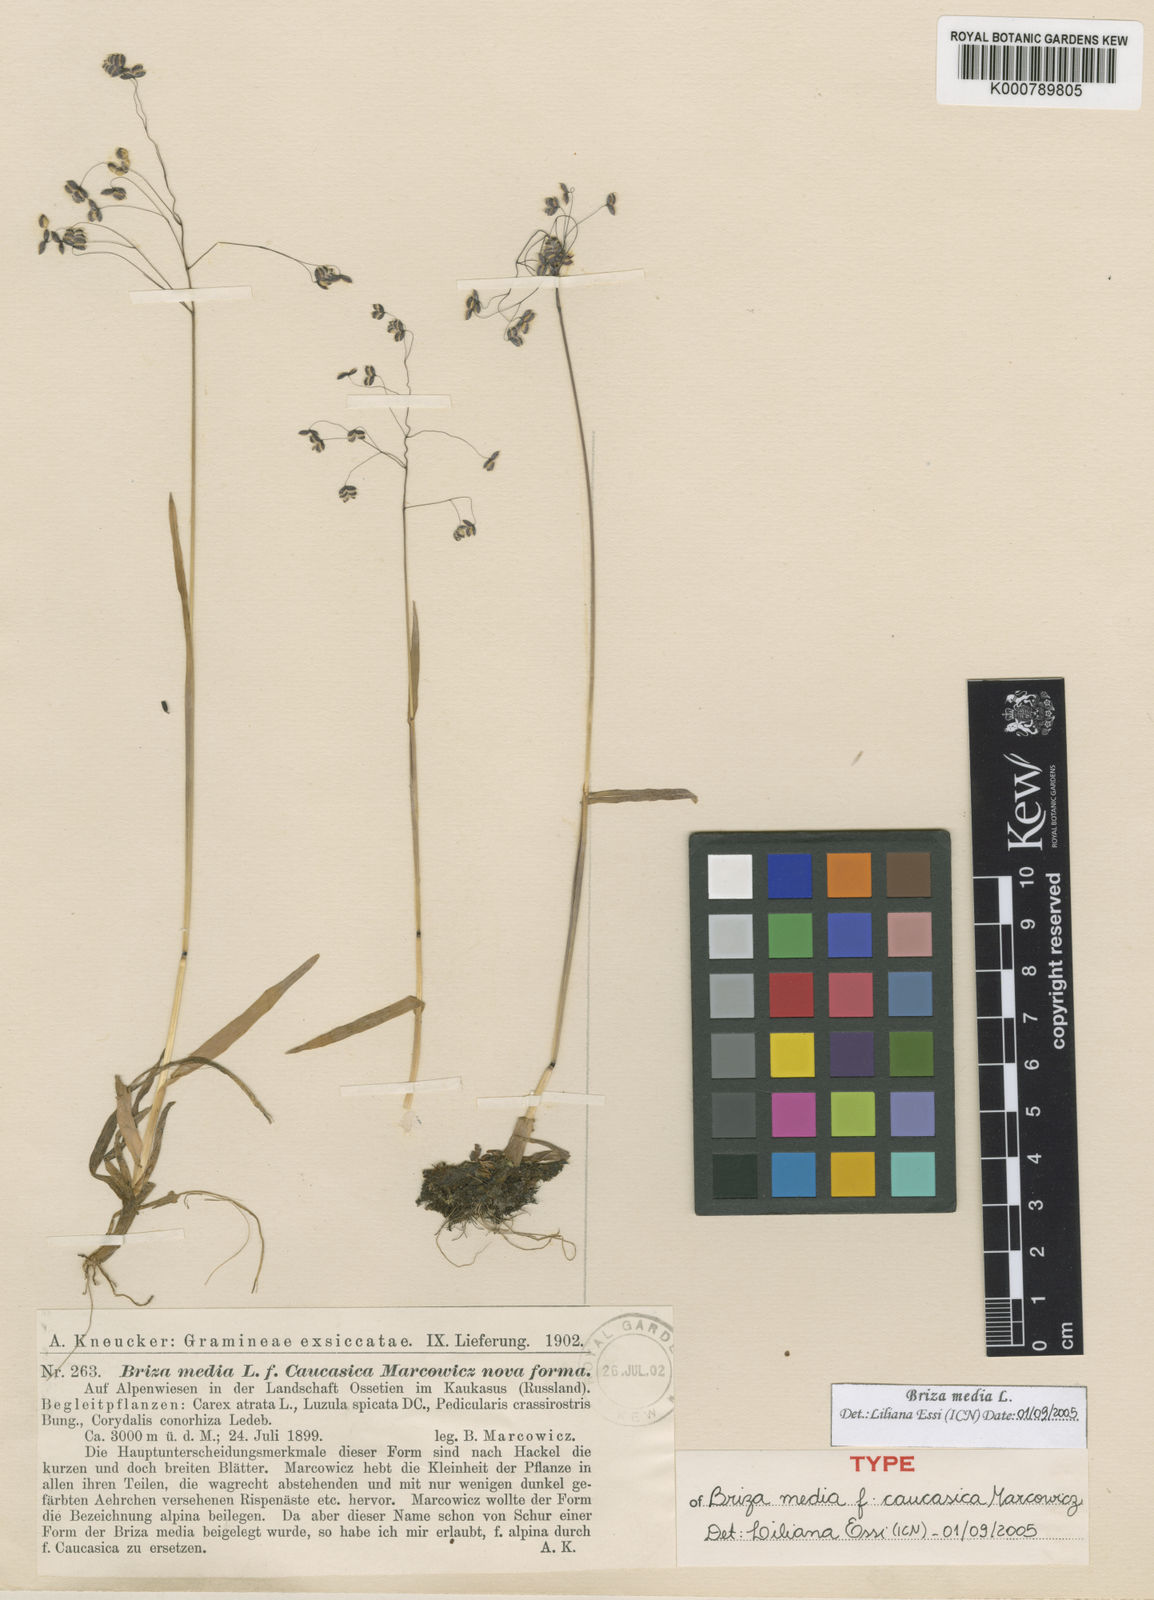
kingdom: Plantae
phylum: Tracheophyta
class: Liliopsida
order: Poales
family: Poaceae
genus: Briza
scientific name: Briza marcowiczii
